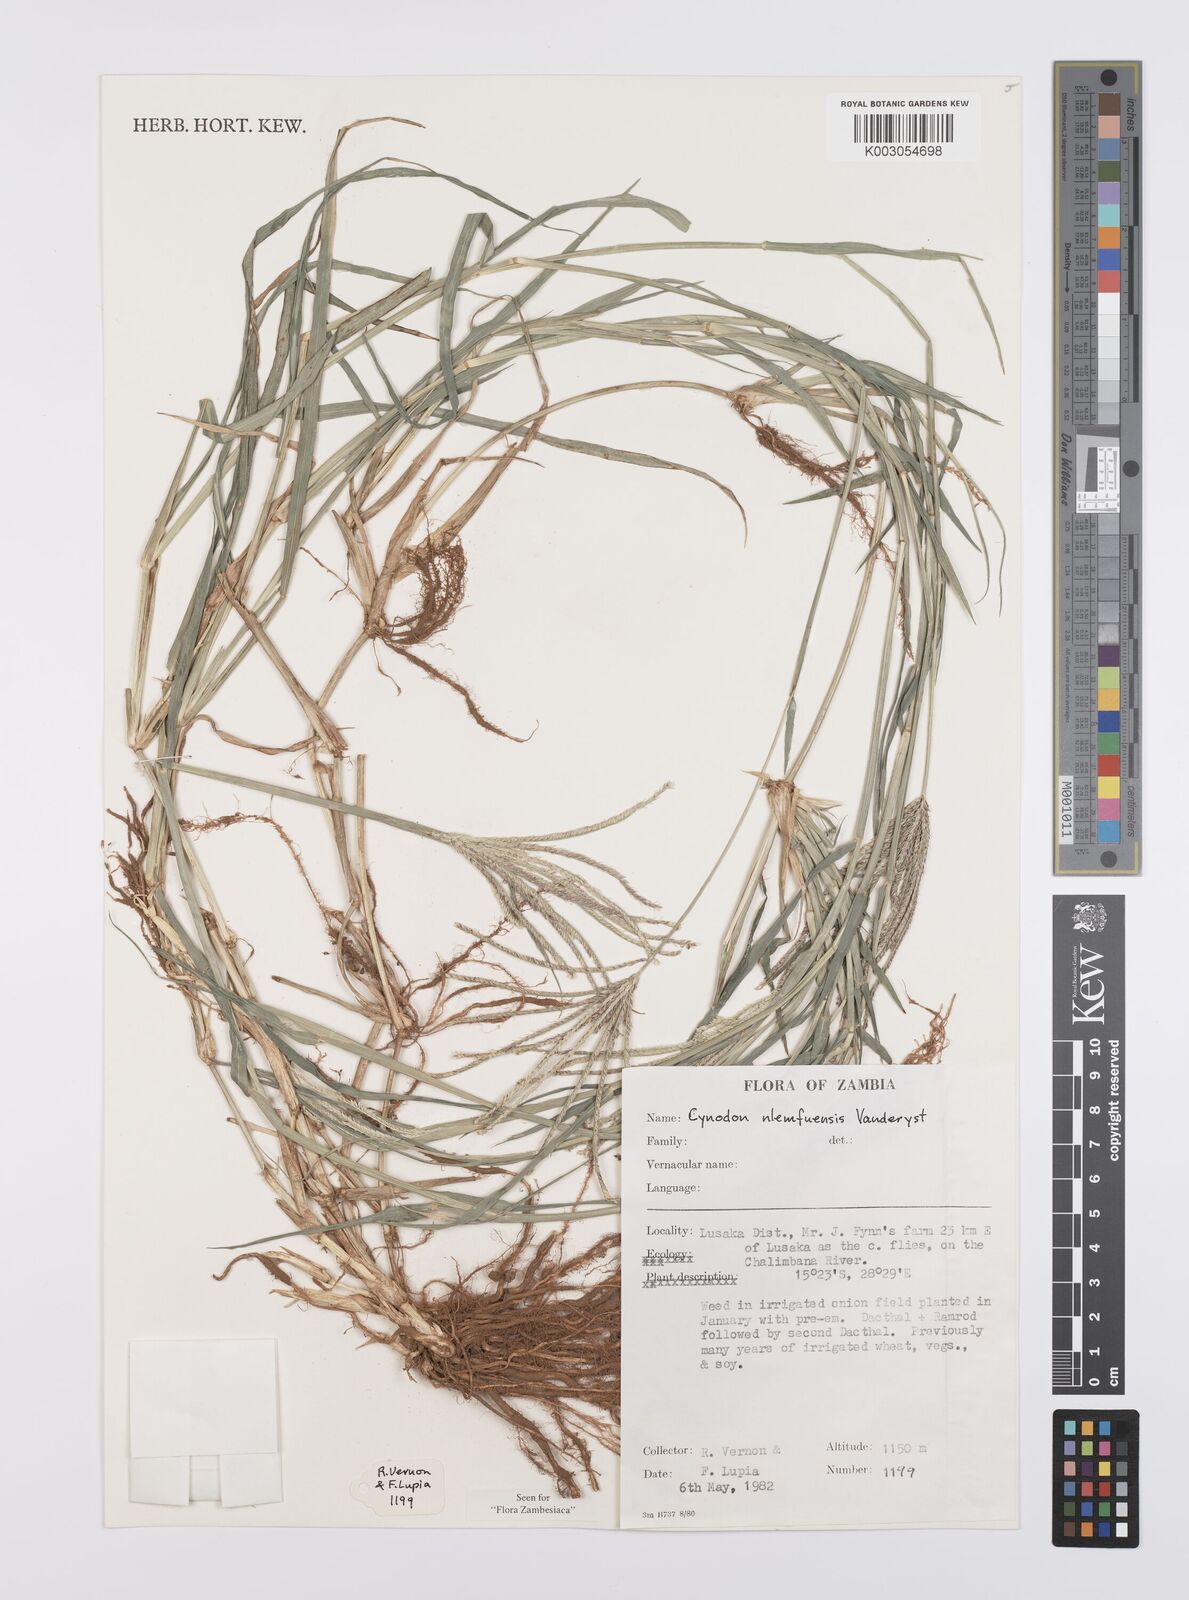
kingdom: Plantae
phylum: Tracheophyta
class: Liliopsida
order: Poales
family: Poaceae
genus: Cynodon
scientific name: Cynodon nlemfuensis
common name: African bermudagrass
